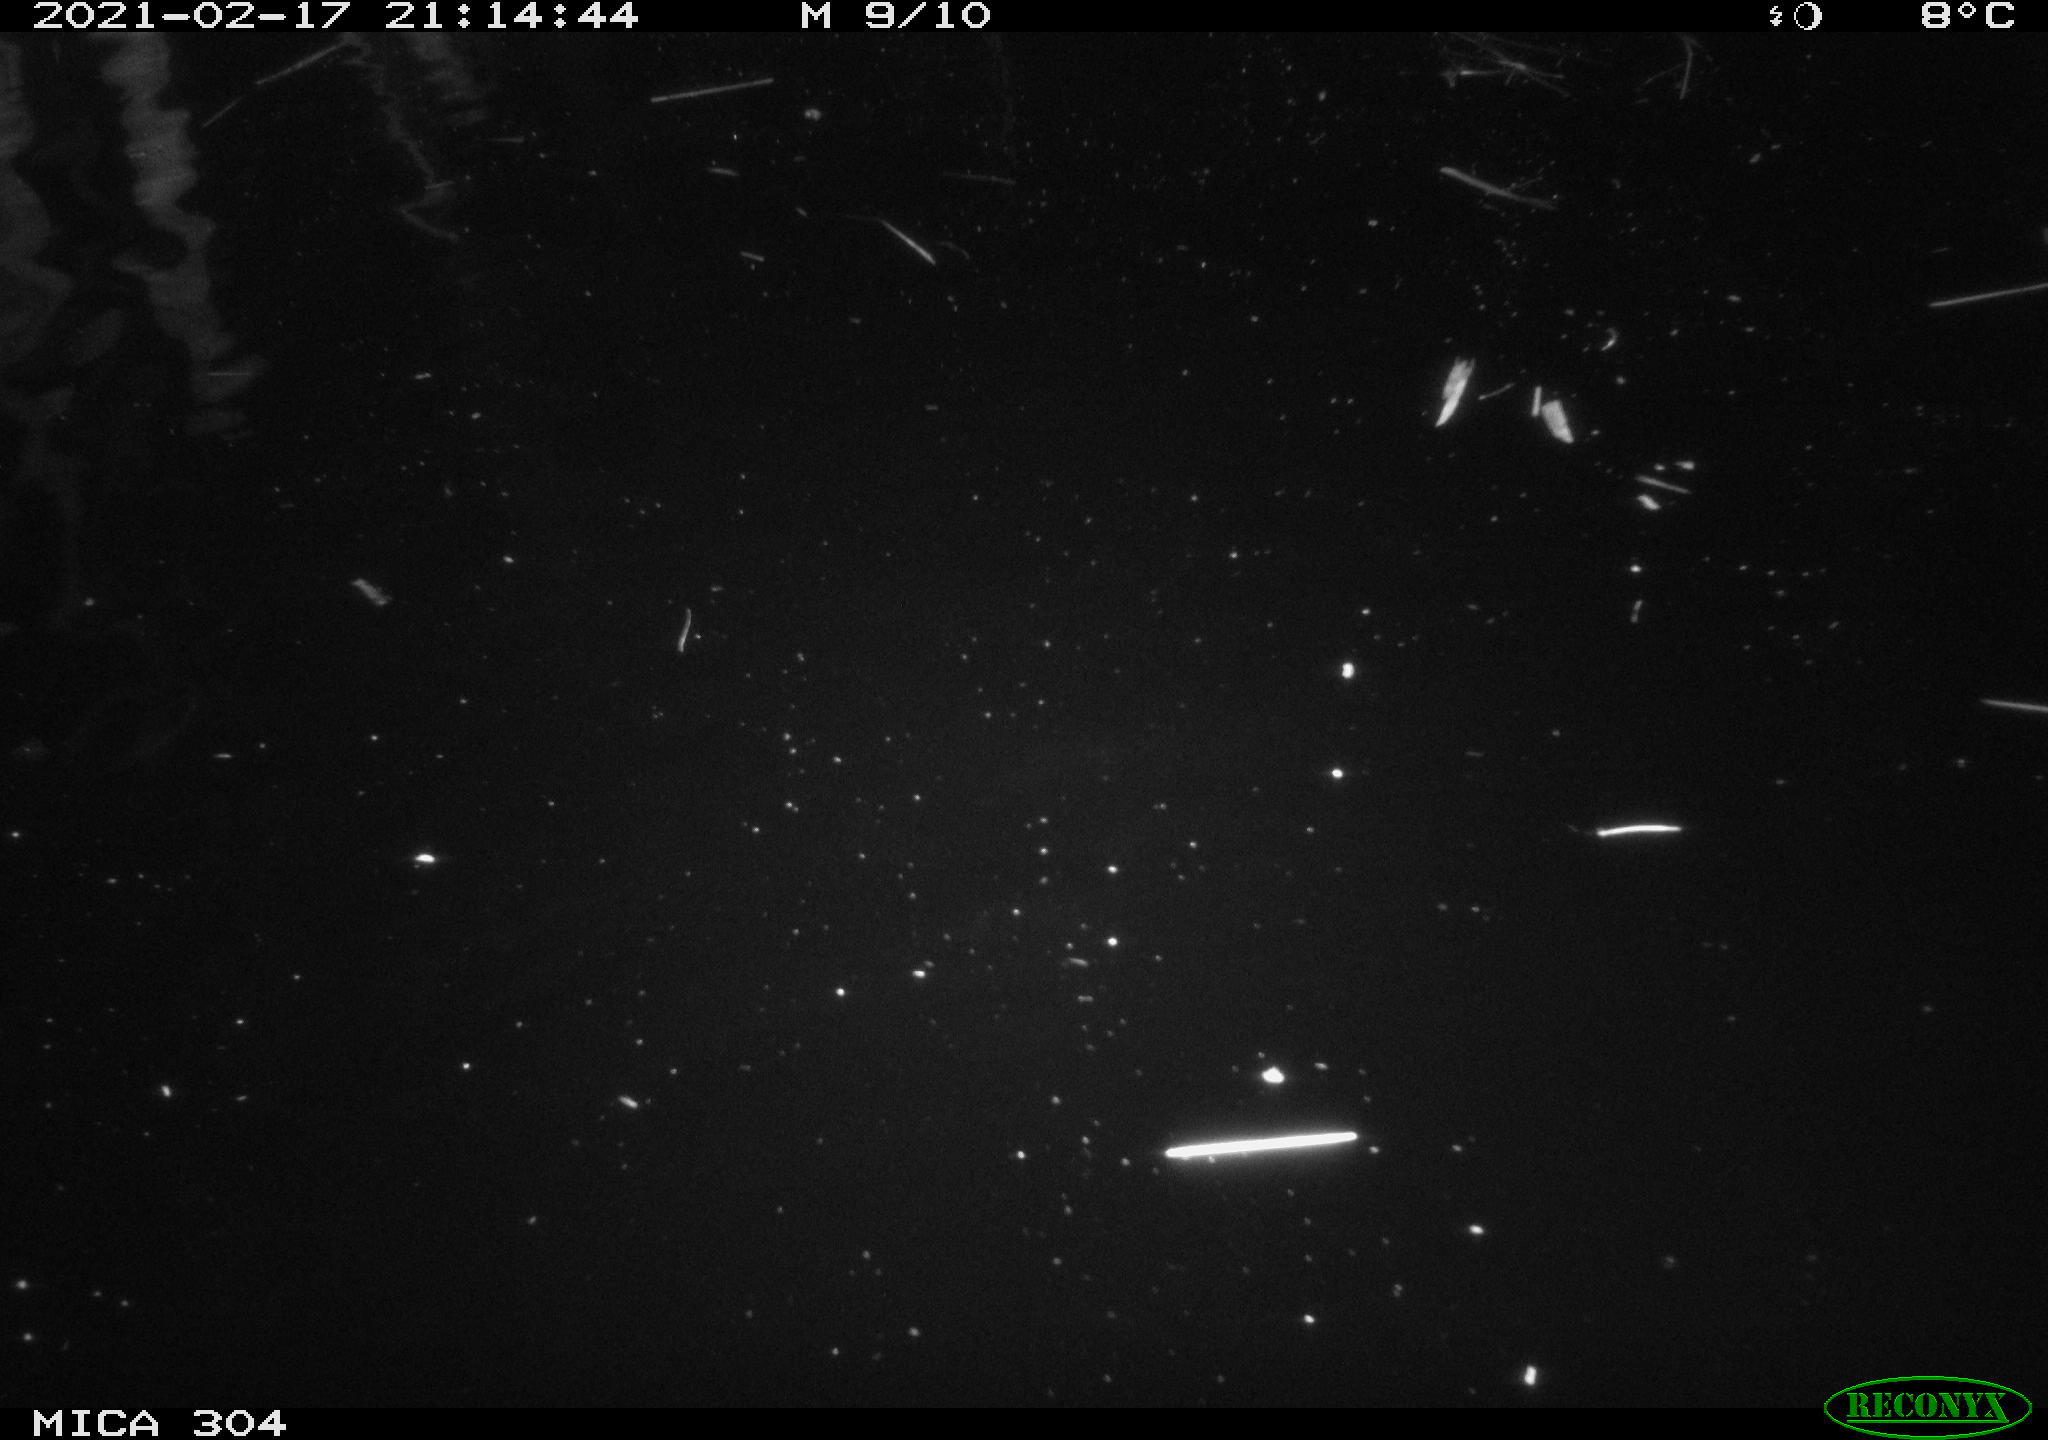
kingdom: Animalia
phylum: Chordata
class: Mammalia
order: Rodentia
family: Cricetidae
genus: Ondatra
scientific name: Ondatra zibethicus
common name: Muskrat
